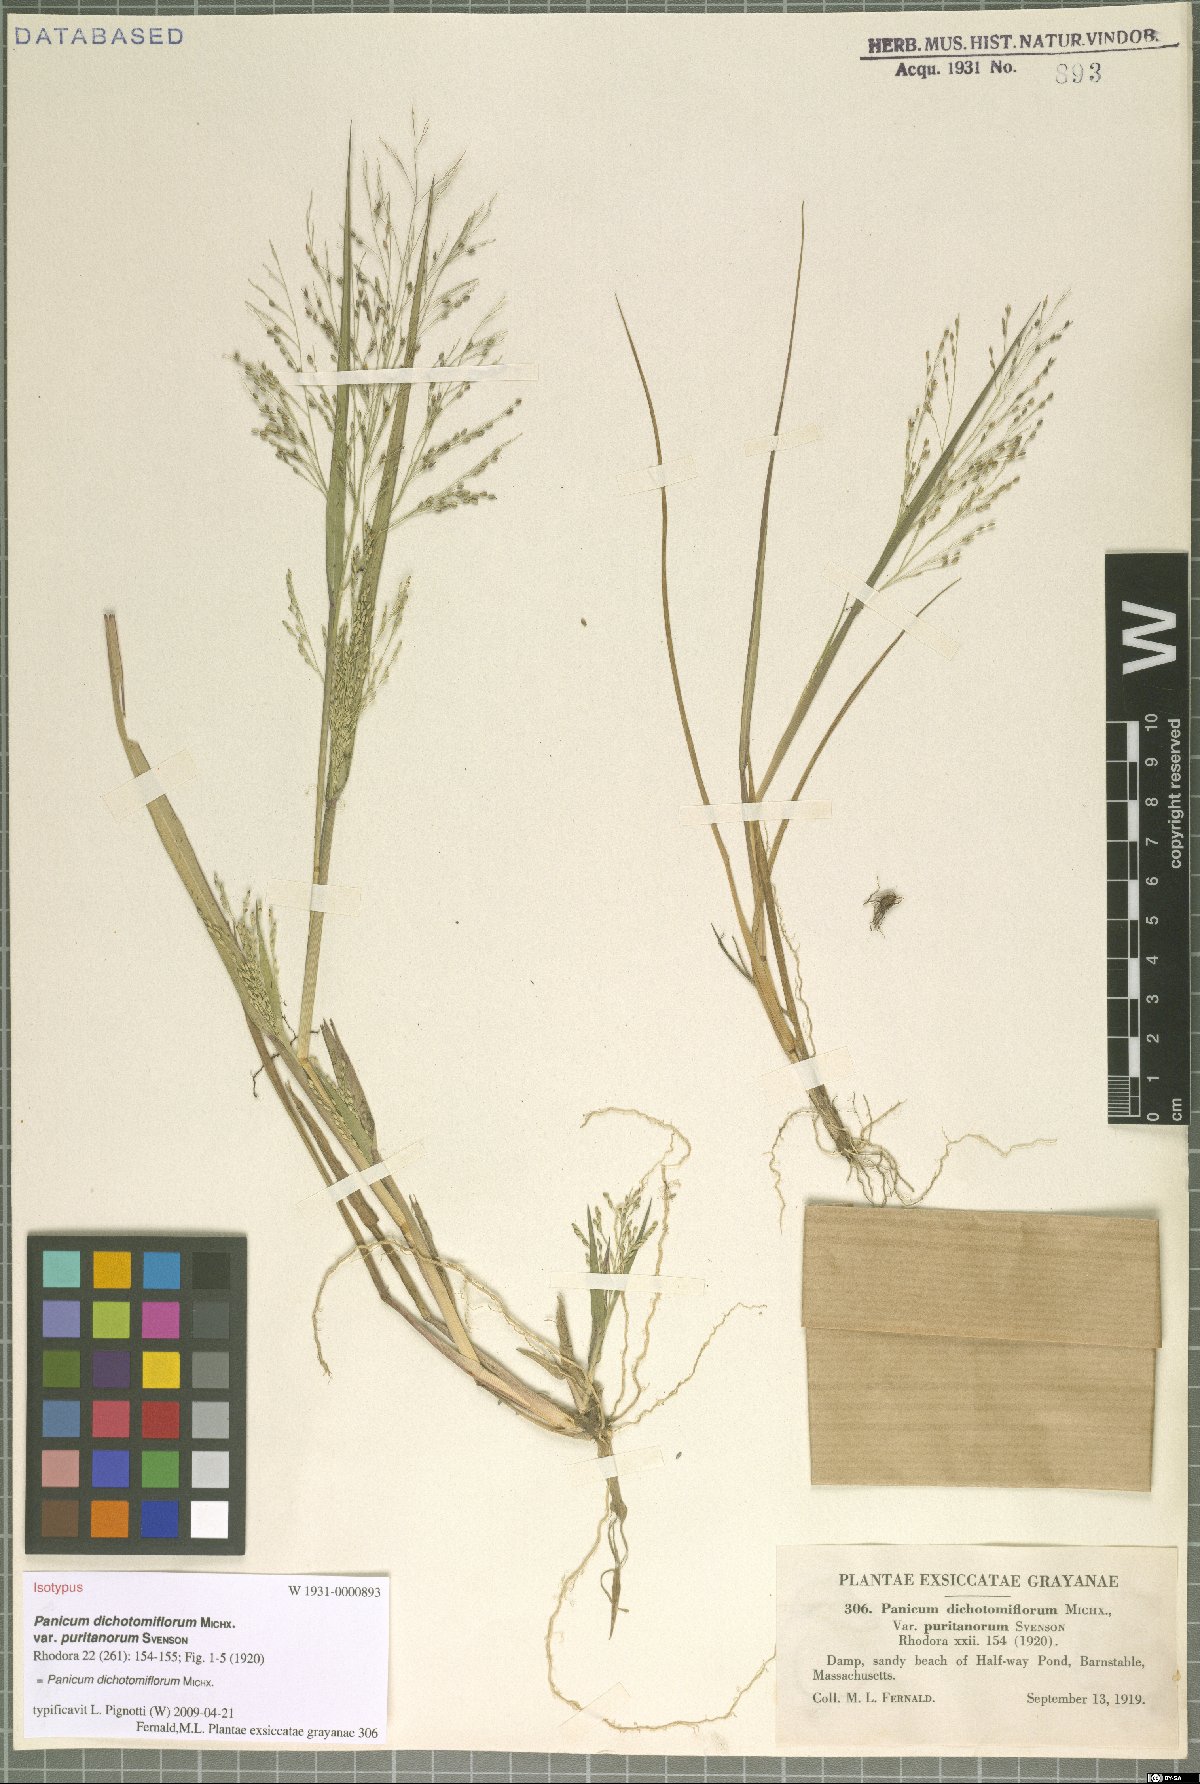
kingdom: Plantae
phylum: Tracheophyta
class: Liliopsida
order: Poales
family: Poaceae
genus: Panicum
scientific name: Panicum dichotomiflorum
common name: Autumn millet
